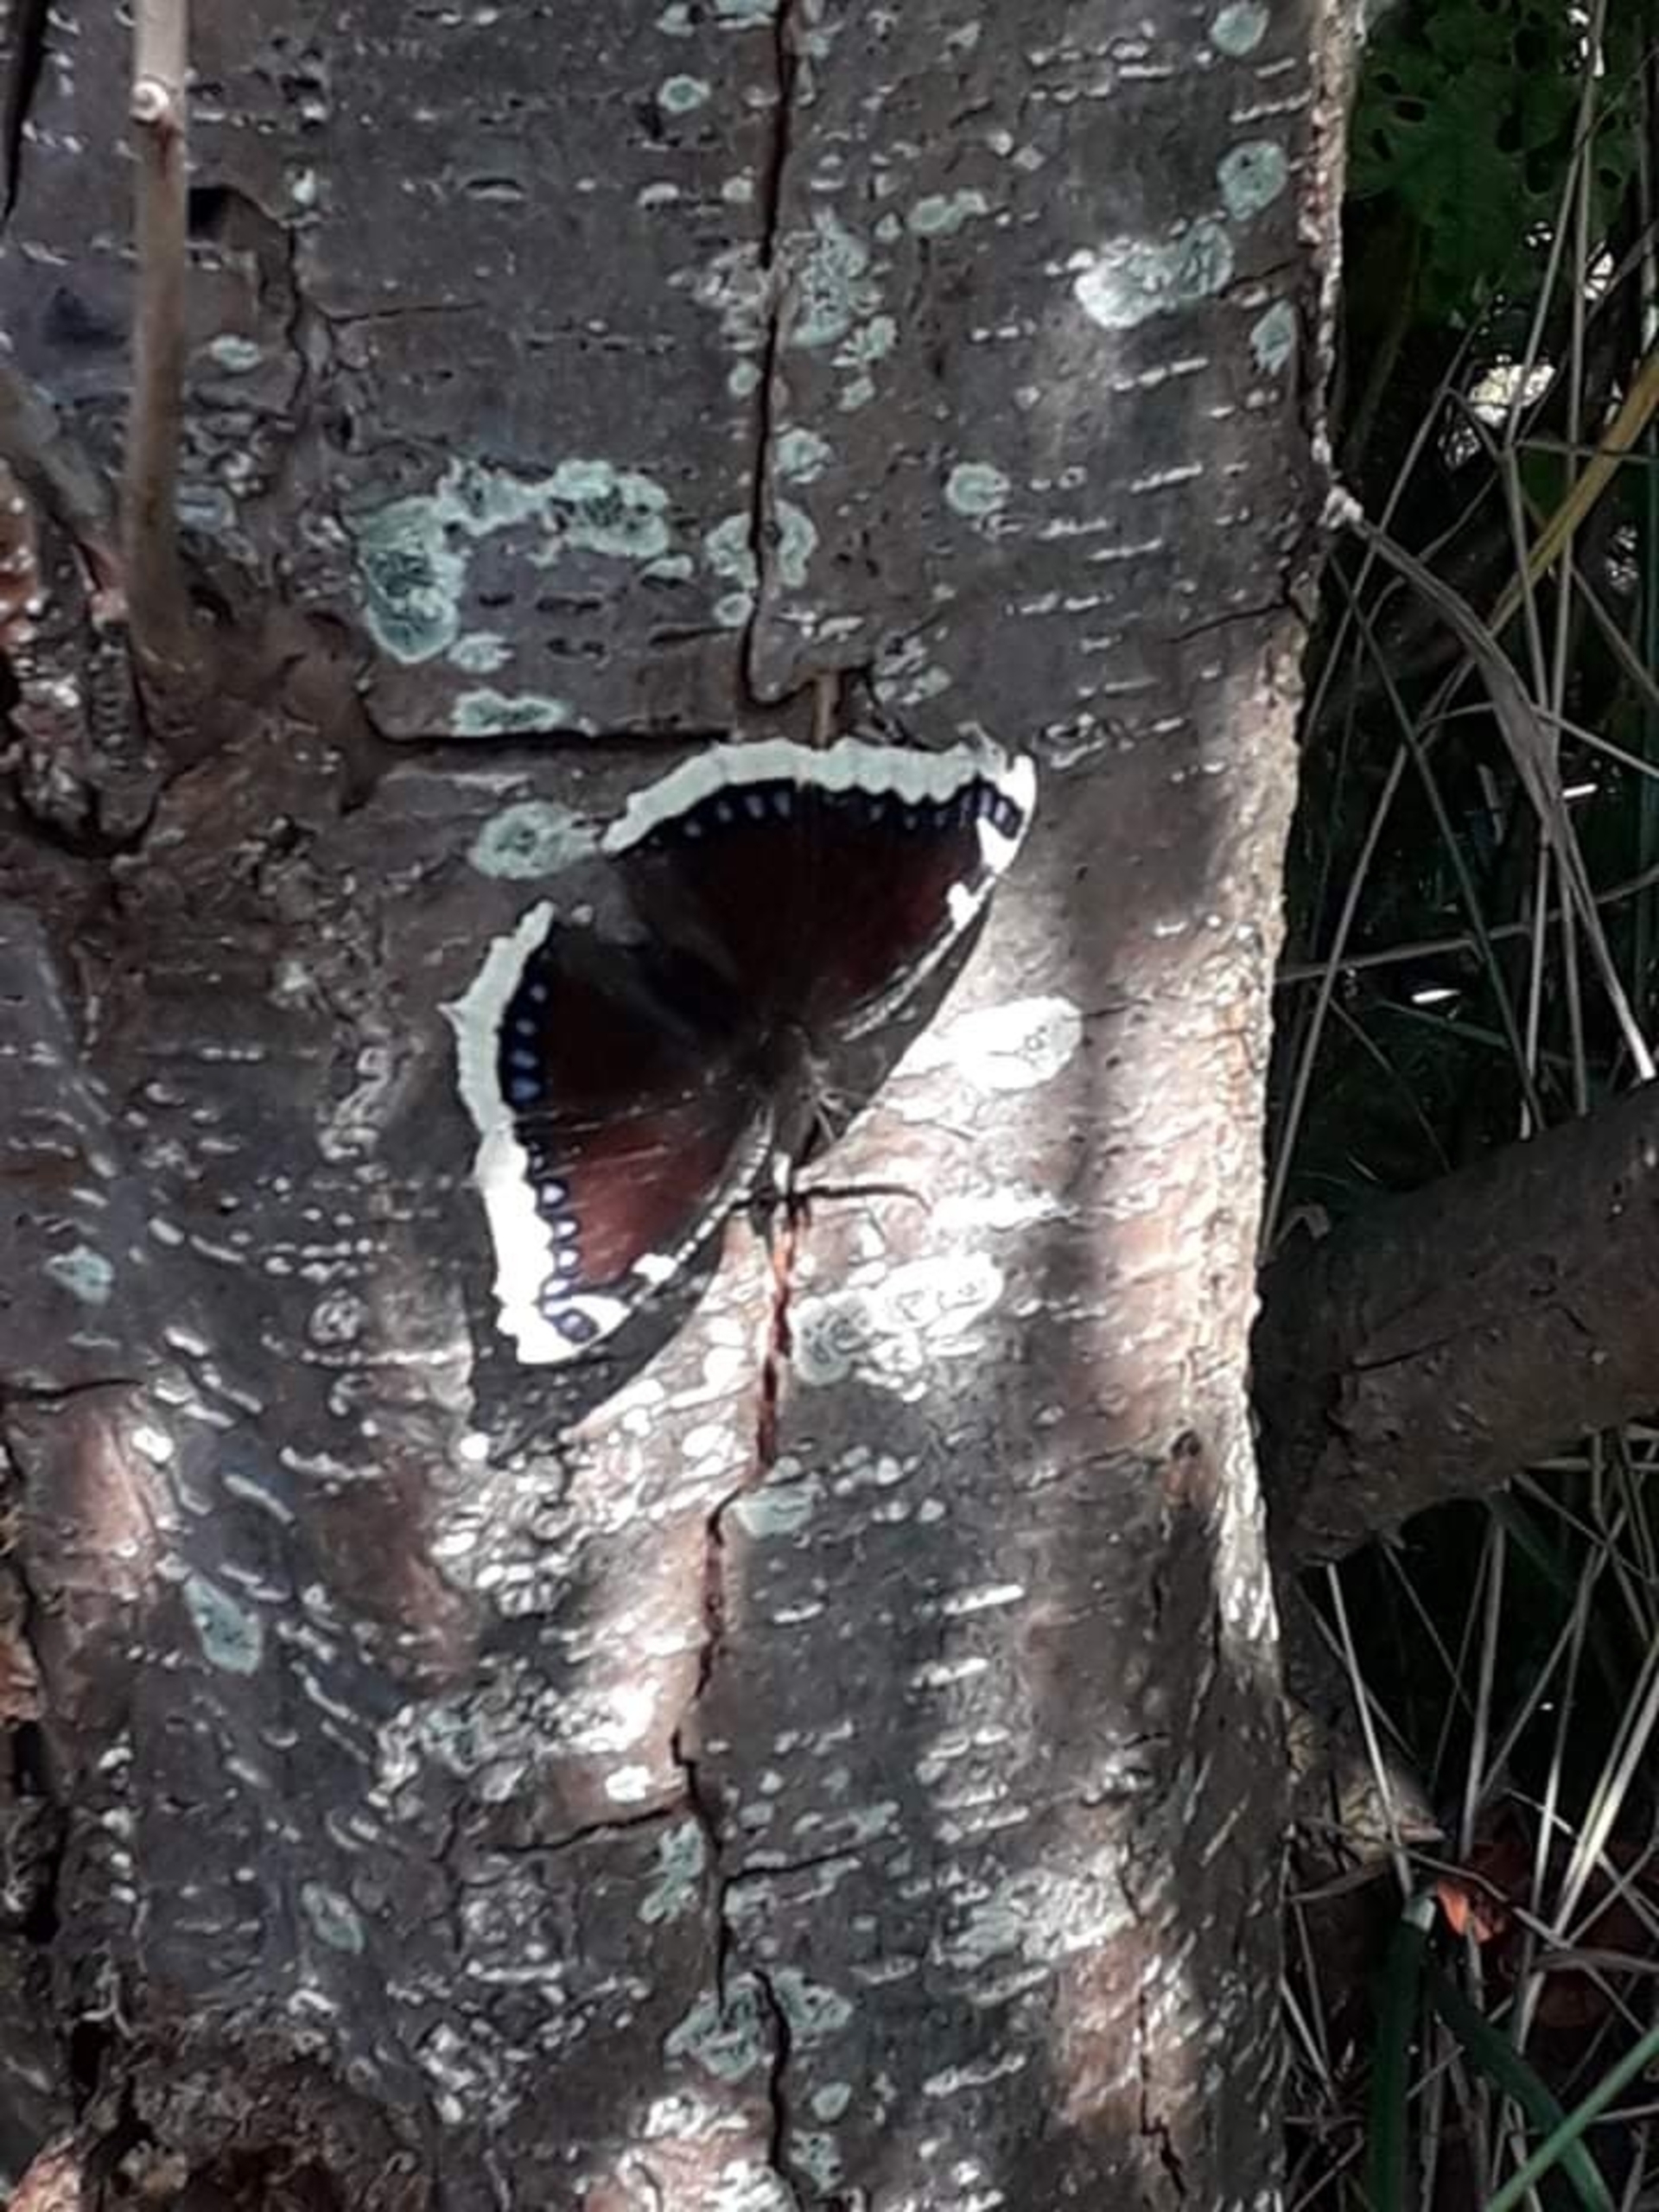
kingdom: Animalia
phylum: Arthropoda
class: Insecta
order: Lepidoptera
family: Nymphalidae
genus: Nymphalis
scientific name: Nymphalis antiopa
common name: Sørgekåbe
